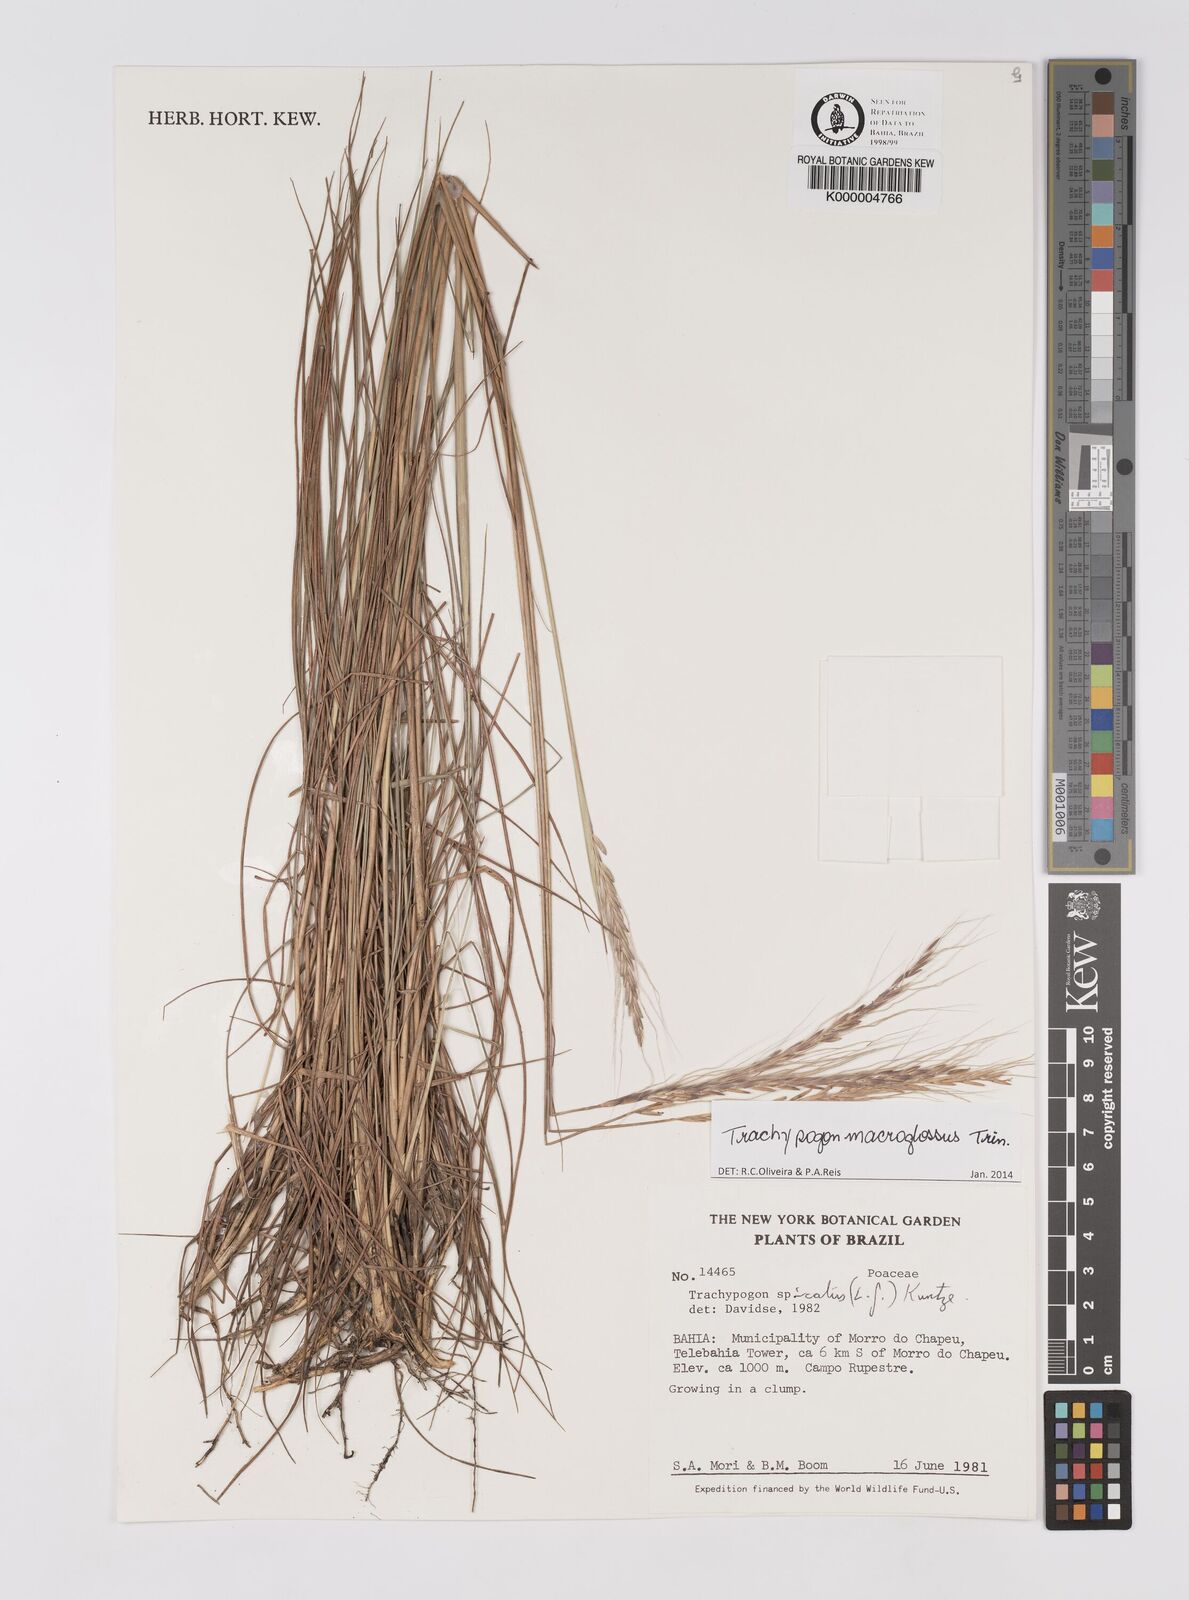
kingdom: Plantae
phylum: Tracheophyta
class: Liliopsida
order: Poales
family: Poaceae
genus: Trachypogon
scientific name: Trachypogon spicatus
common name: Crinkle-awn
